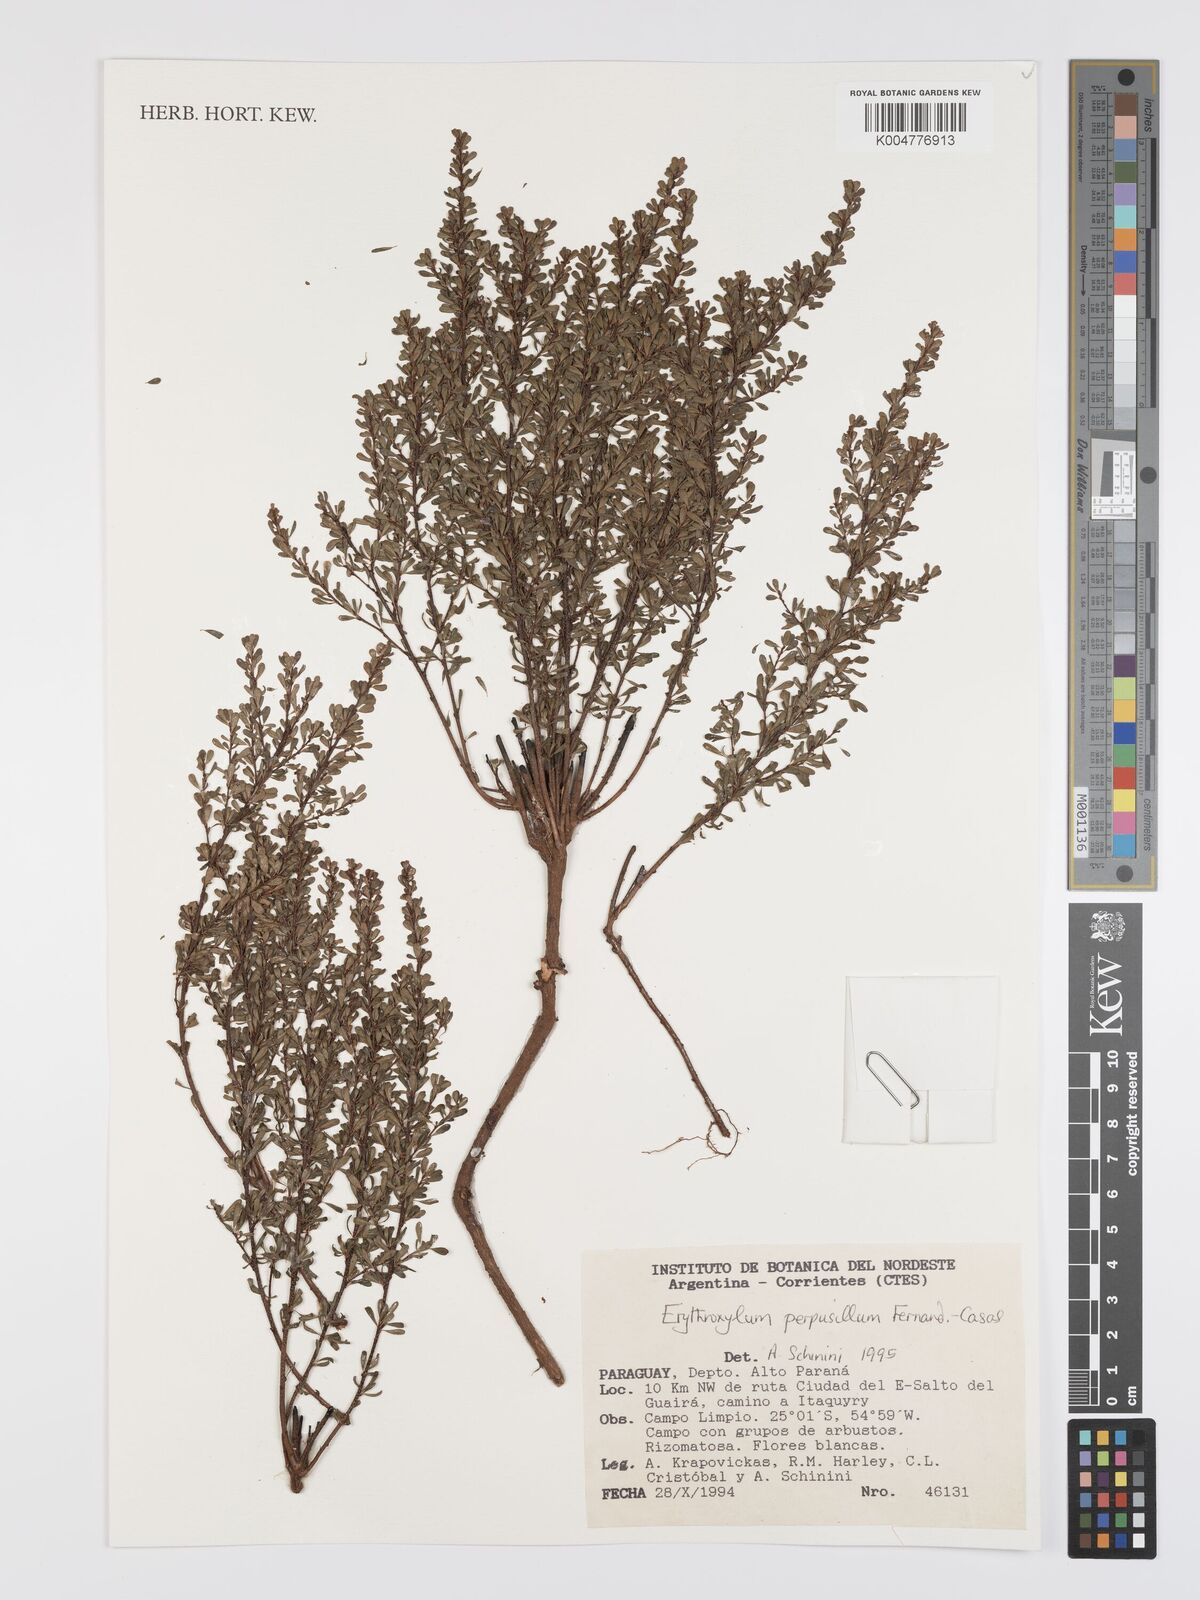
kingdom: Plantae
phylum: Tracheophyta
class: Magnoliopsida
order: Malpighiales
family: Erythroxylaceae
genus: Erythroxylum
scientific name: Erythroxylum microphyllum
